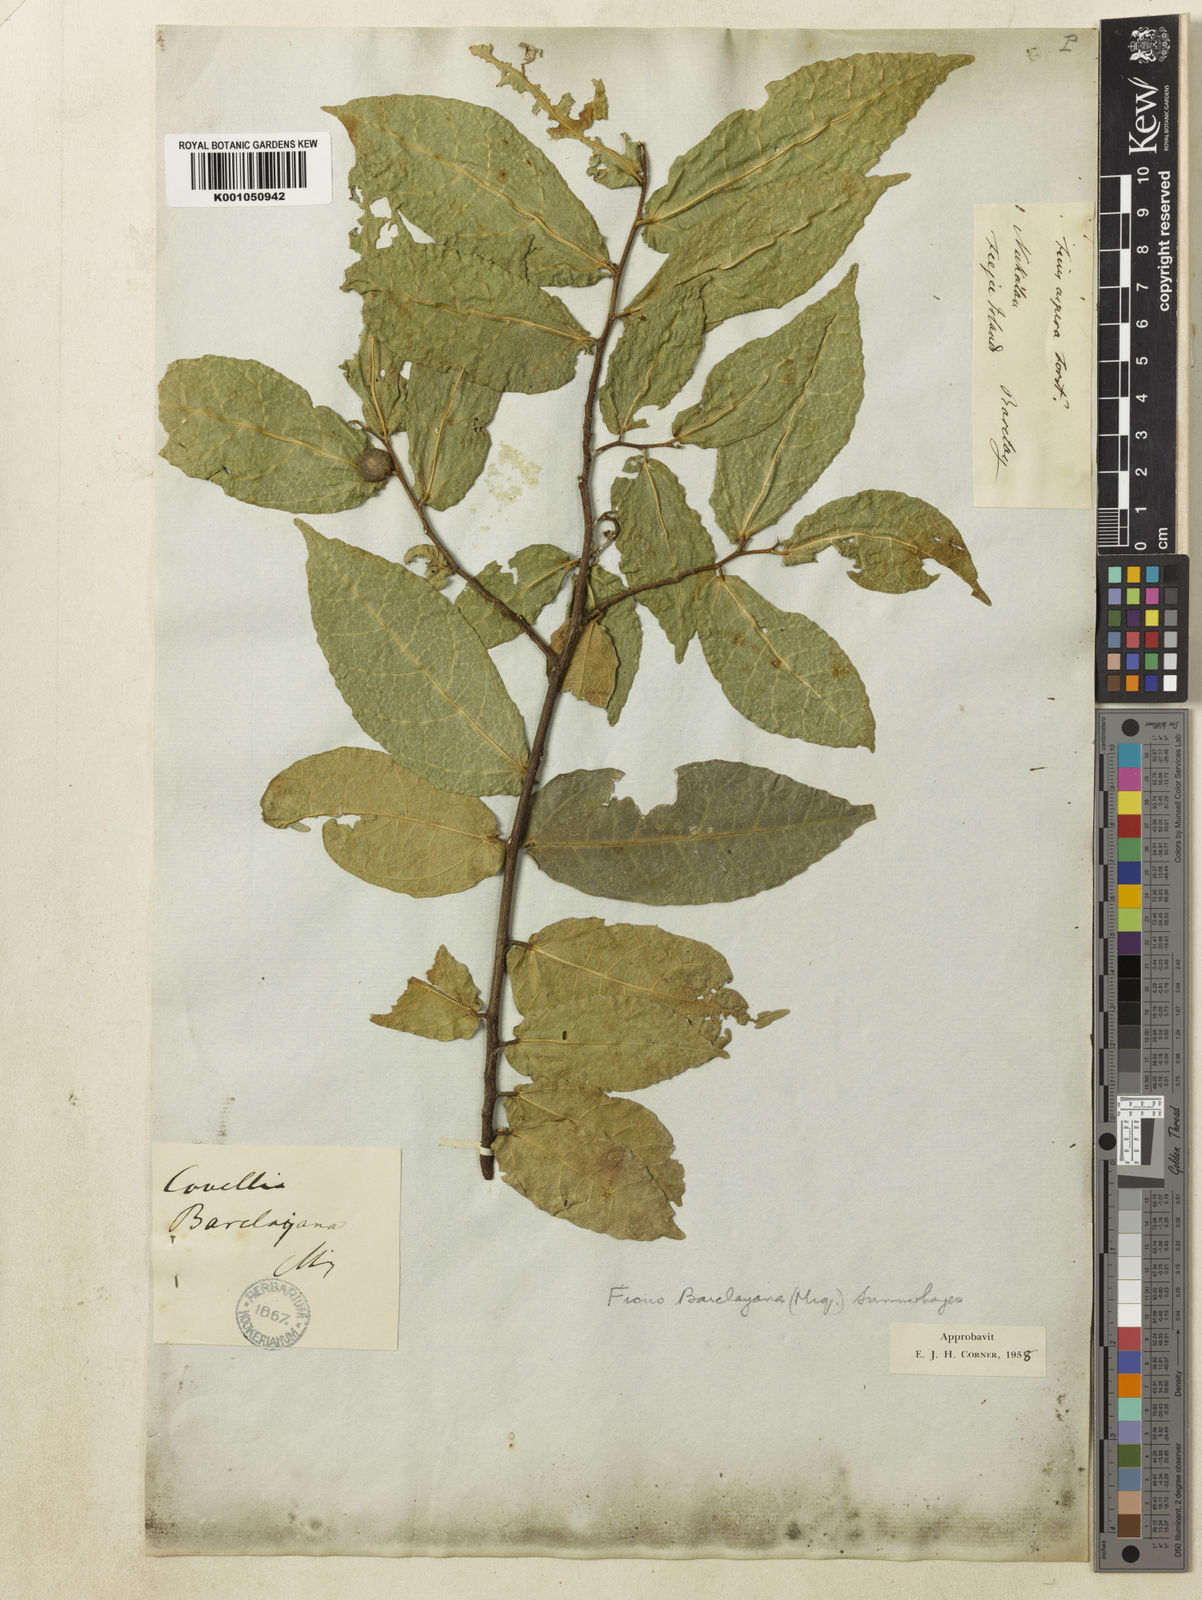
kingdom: Plantae
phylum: Tracheophyta
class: Magnoliopsida
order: Rosales
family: Moraceae
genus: Ficus
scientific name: Ficus
